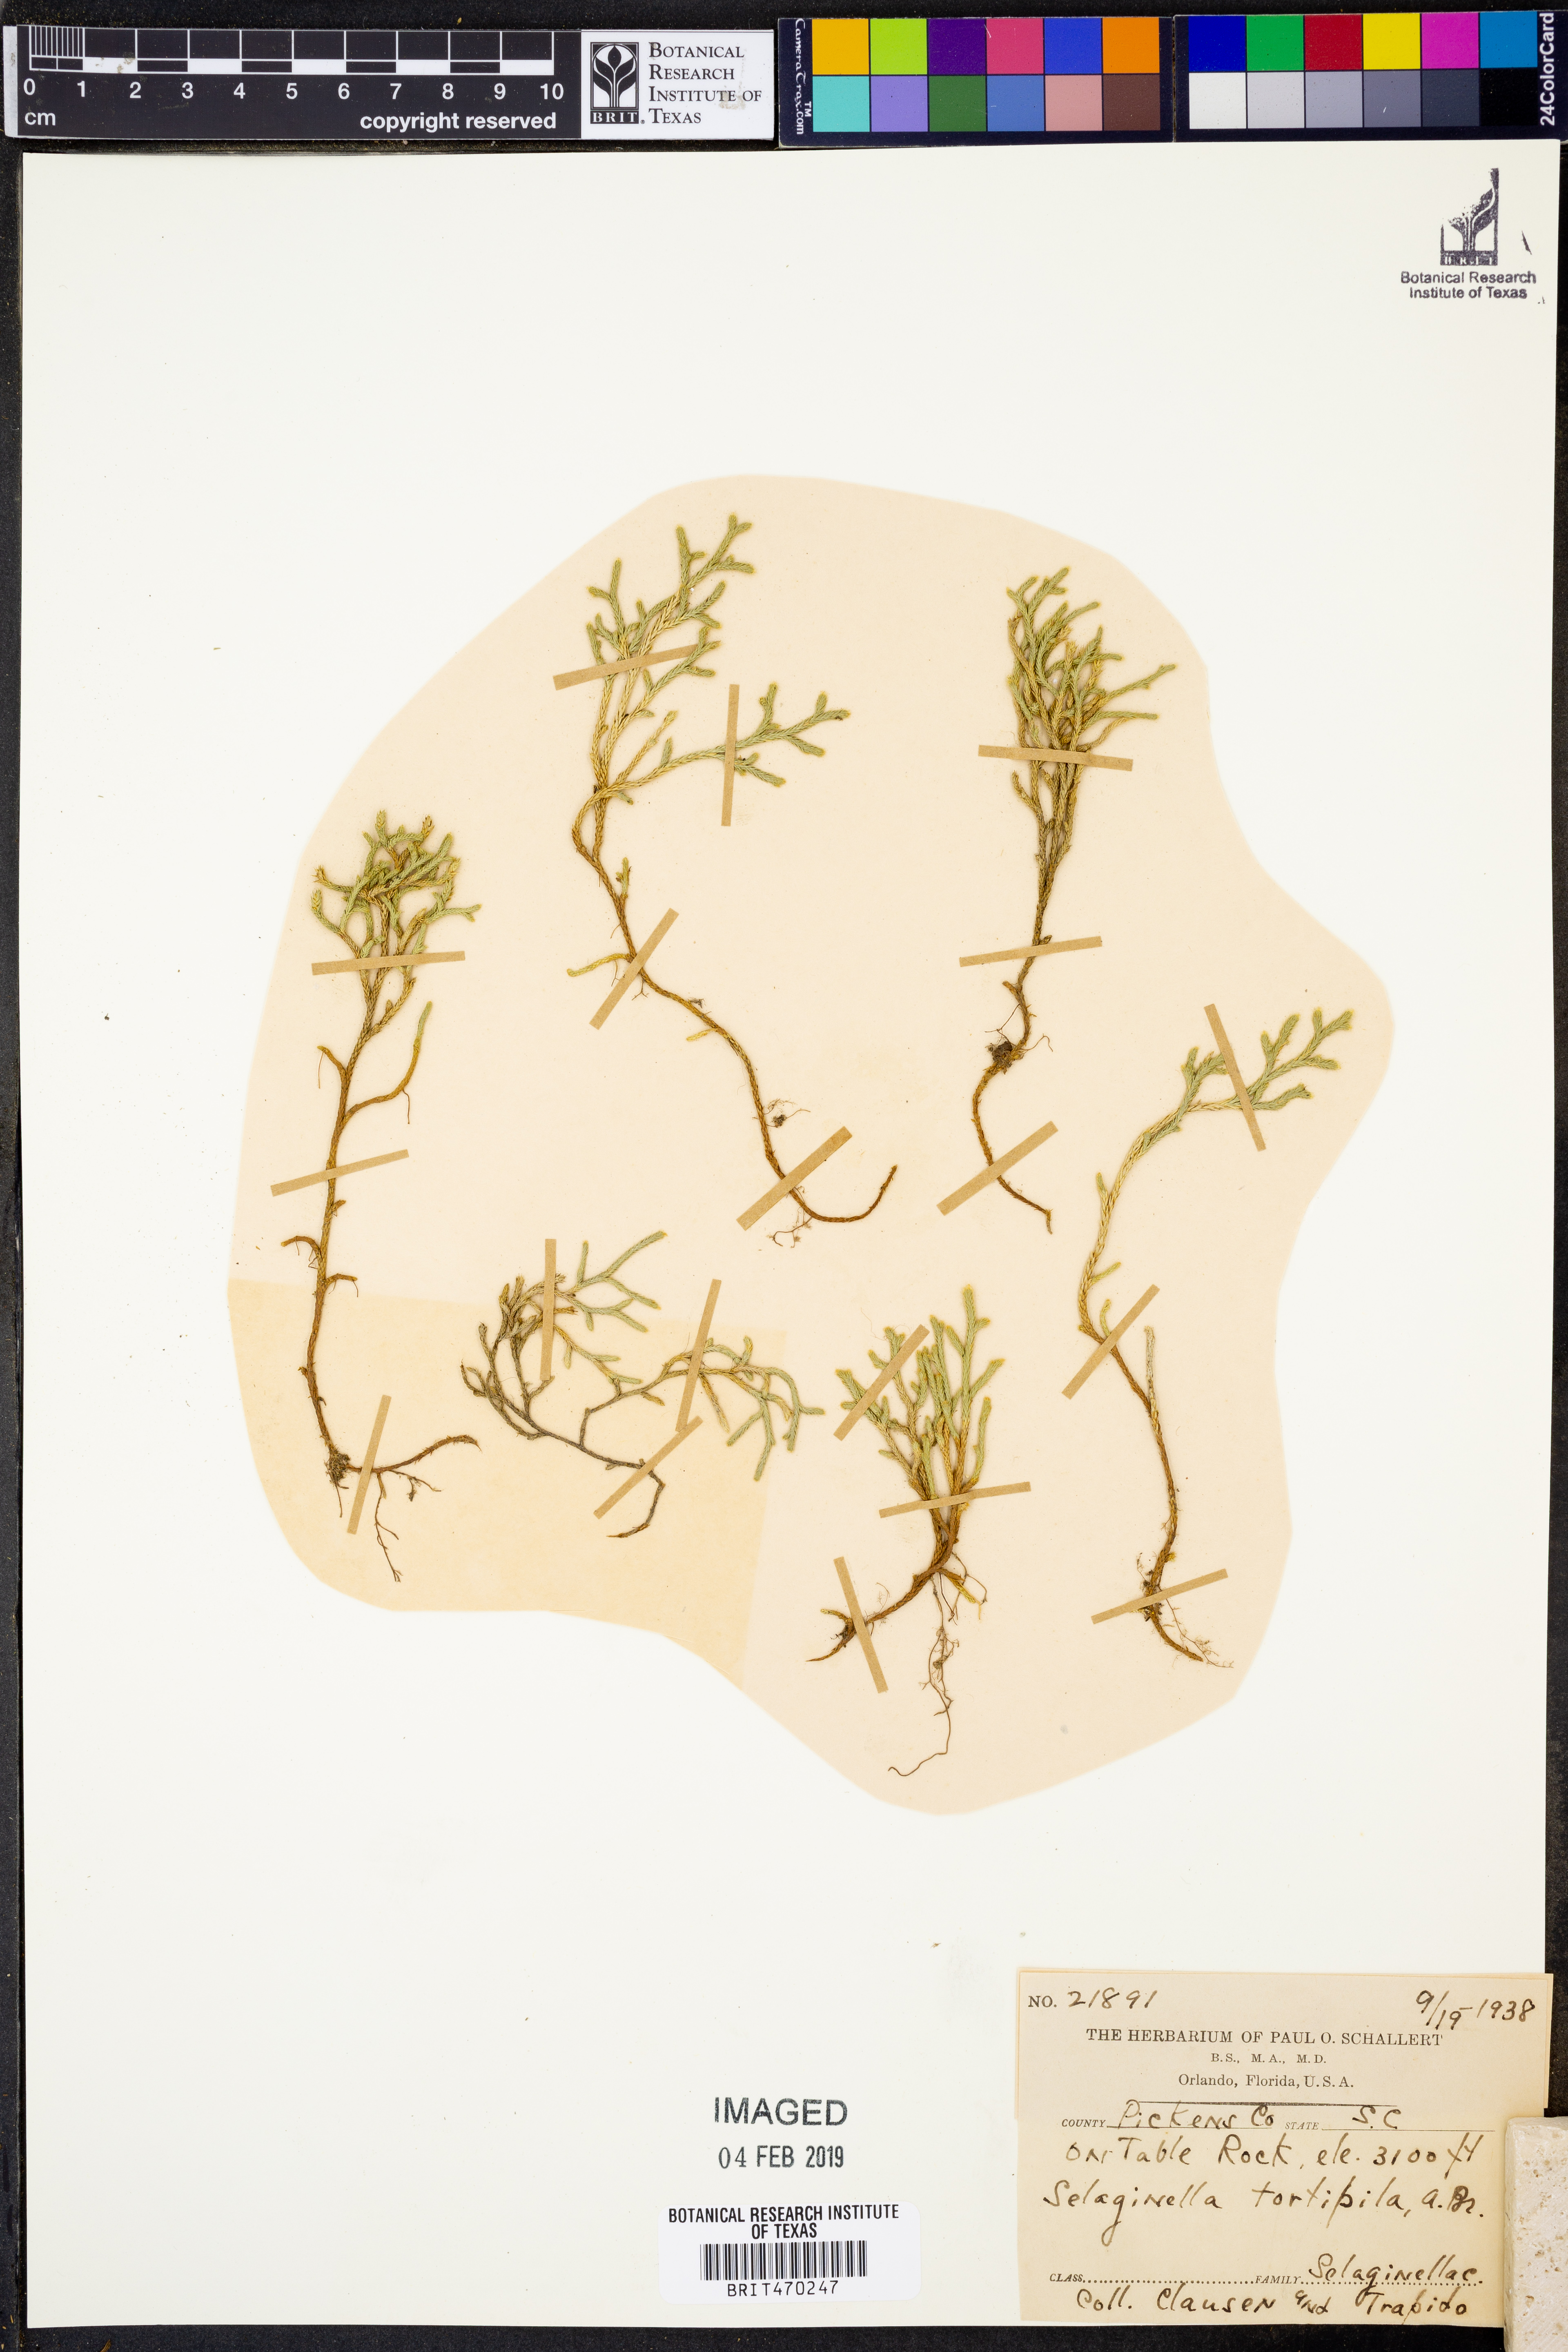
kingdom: Plantae
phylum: Tracheophyta
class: Lycopodiopsida
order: Selaginellales
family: Selaginellaceae
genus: Selaginella
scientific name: Selaginella tortipila
